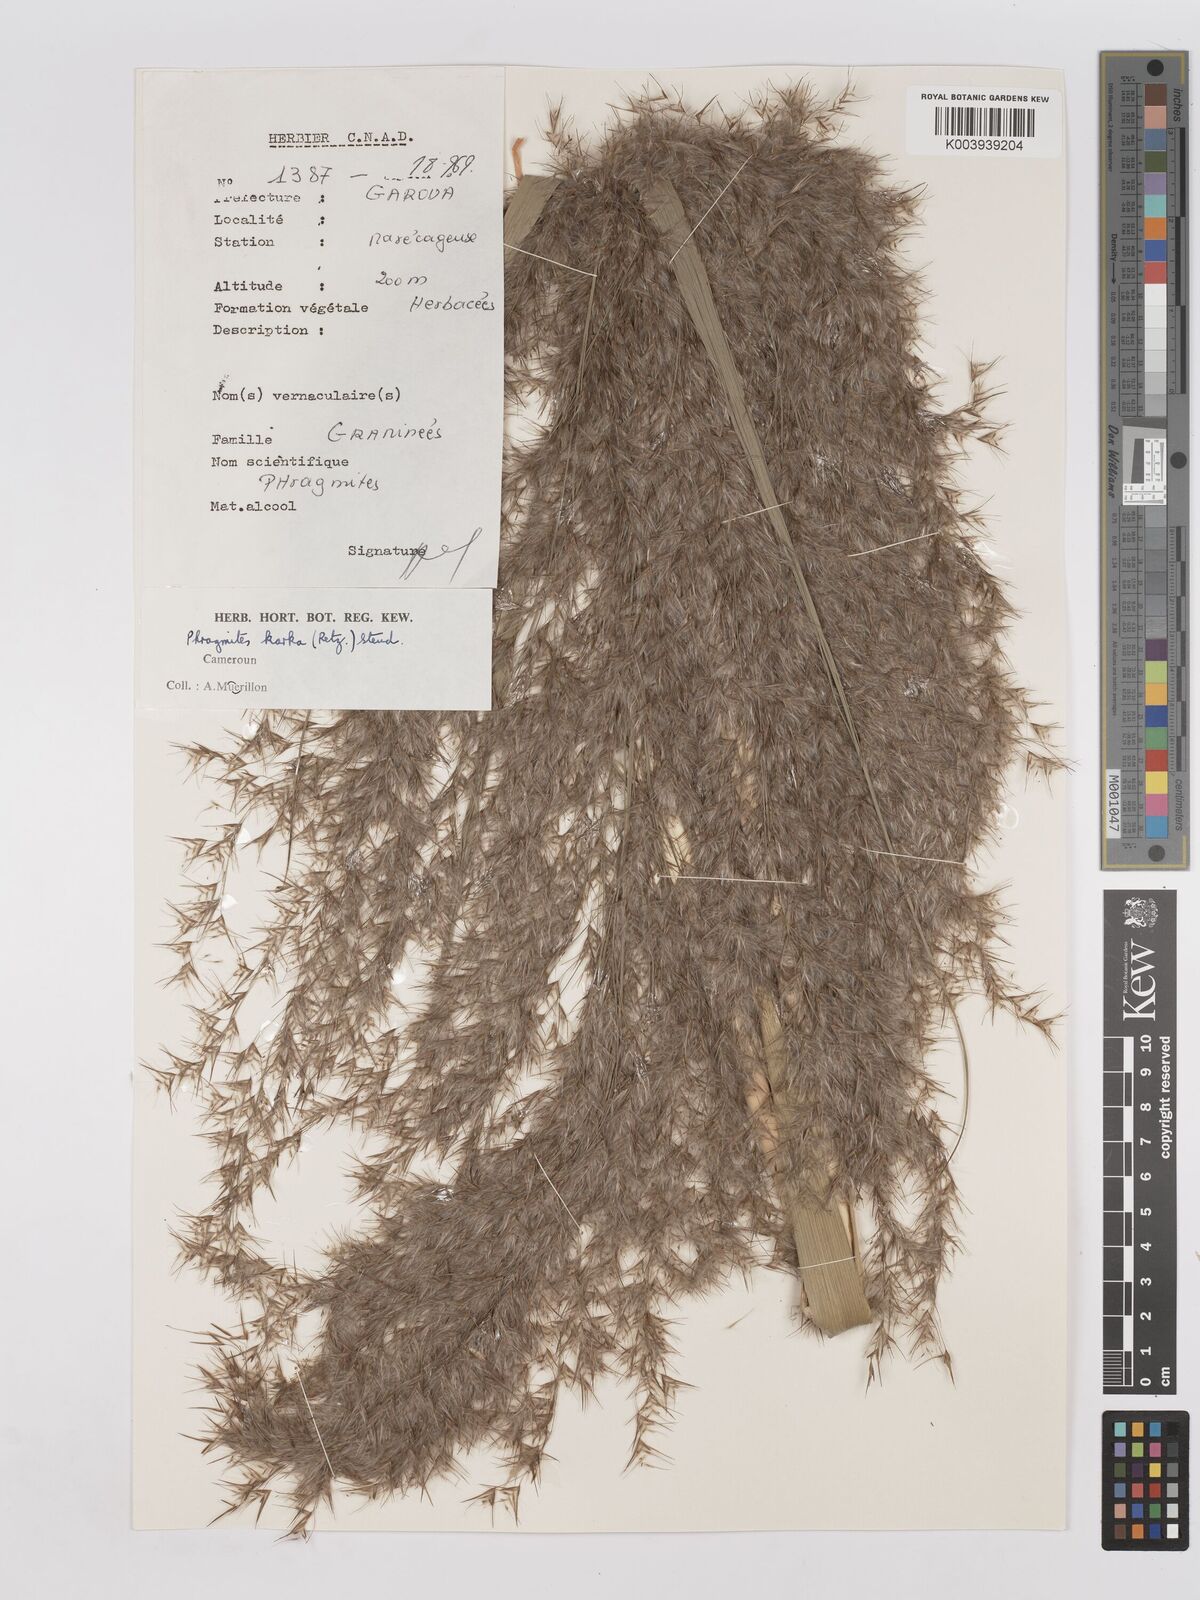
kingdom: Plantae
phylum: Tracheophyta
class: Liliopsida
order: Poales
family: Poaceae
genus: Phragmites
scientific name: Phragmites karka
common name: Tropical reed
